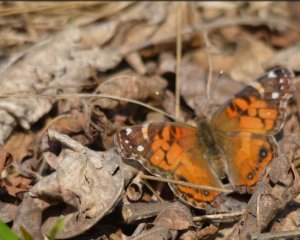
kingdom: Animalia
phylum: Arthropoda
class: Insecta
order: Lepidoptera
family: Nymphalidae
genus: Vanessa
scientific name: Vanessa virginiensis
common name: American Lady
